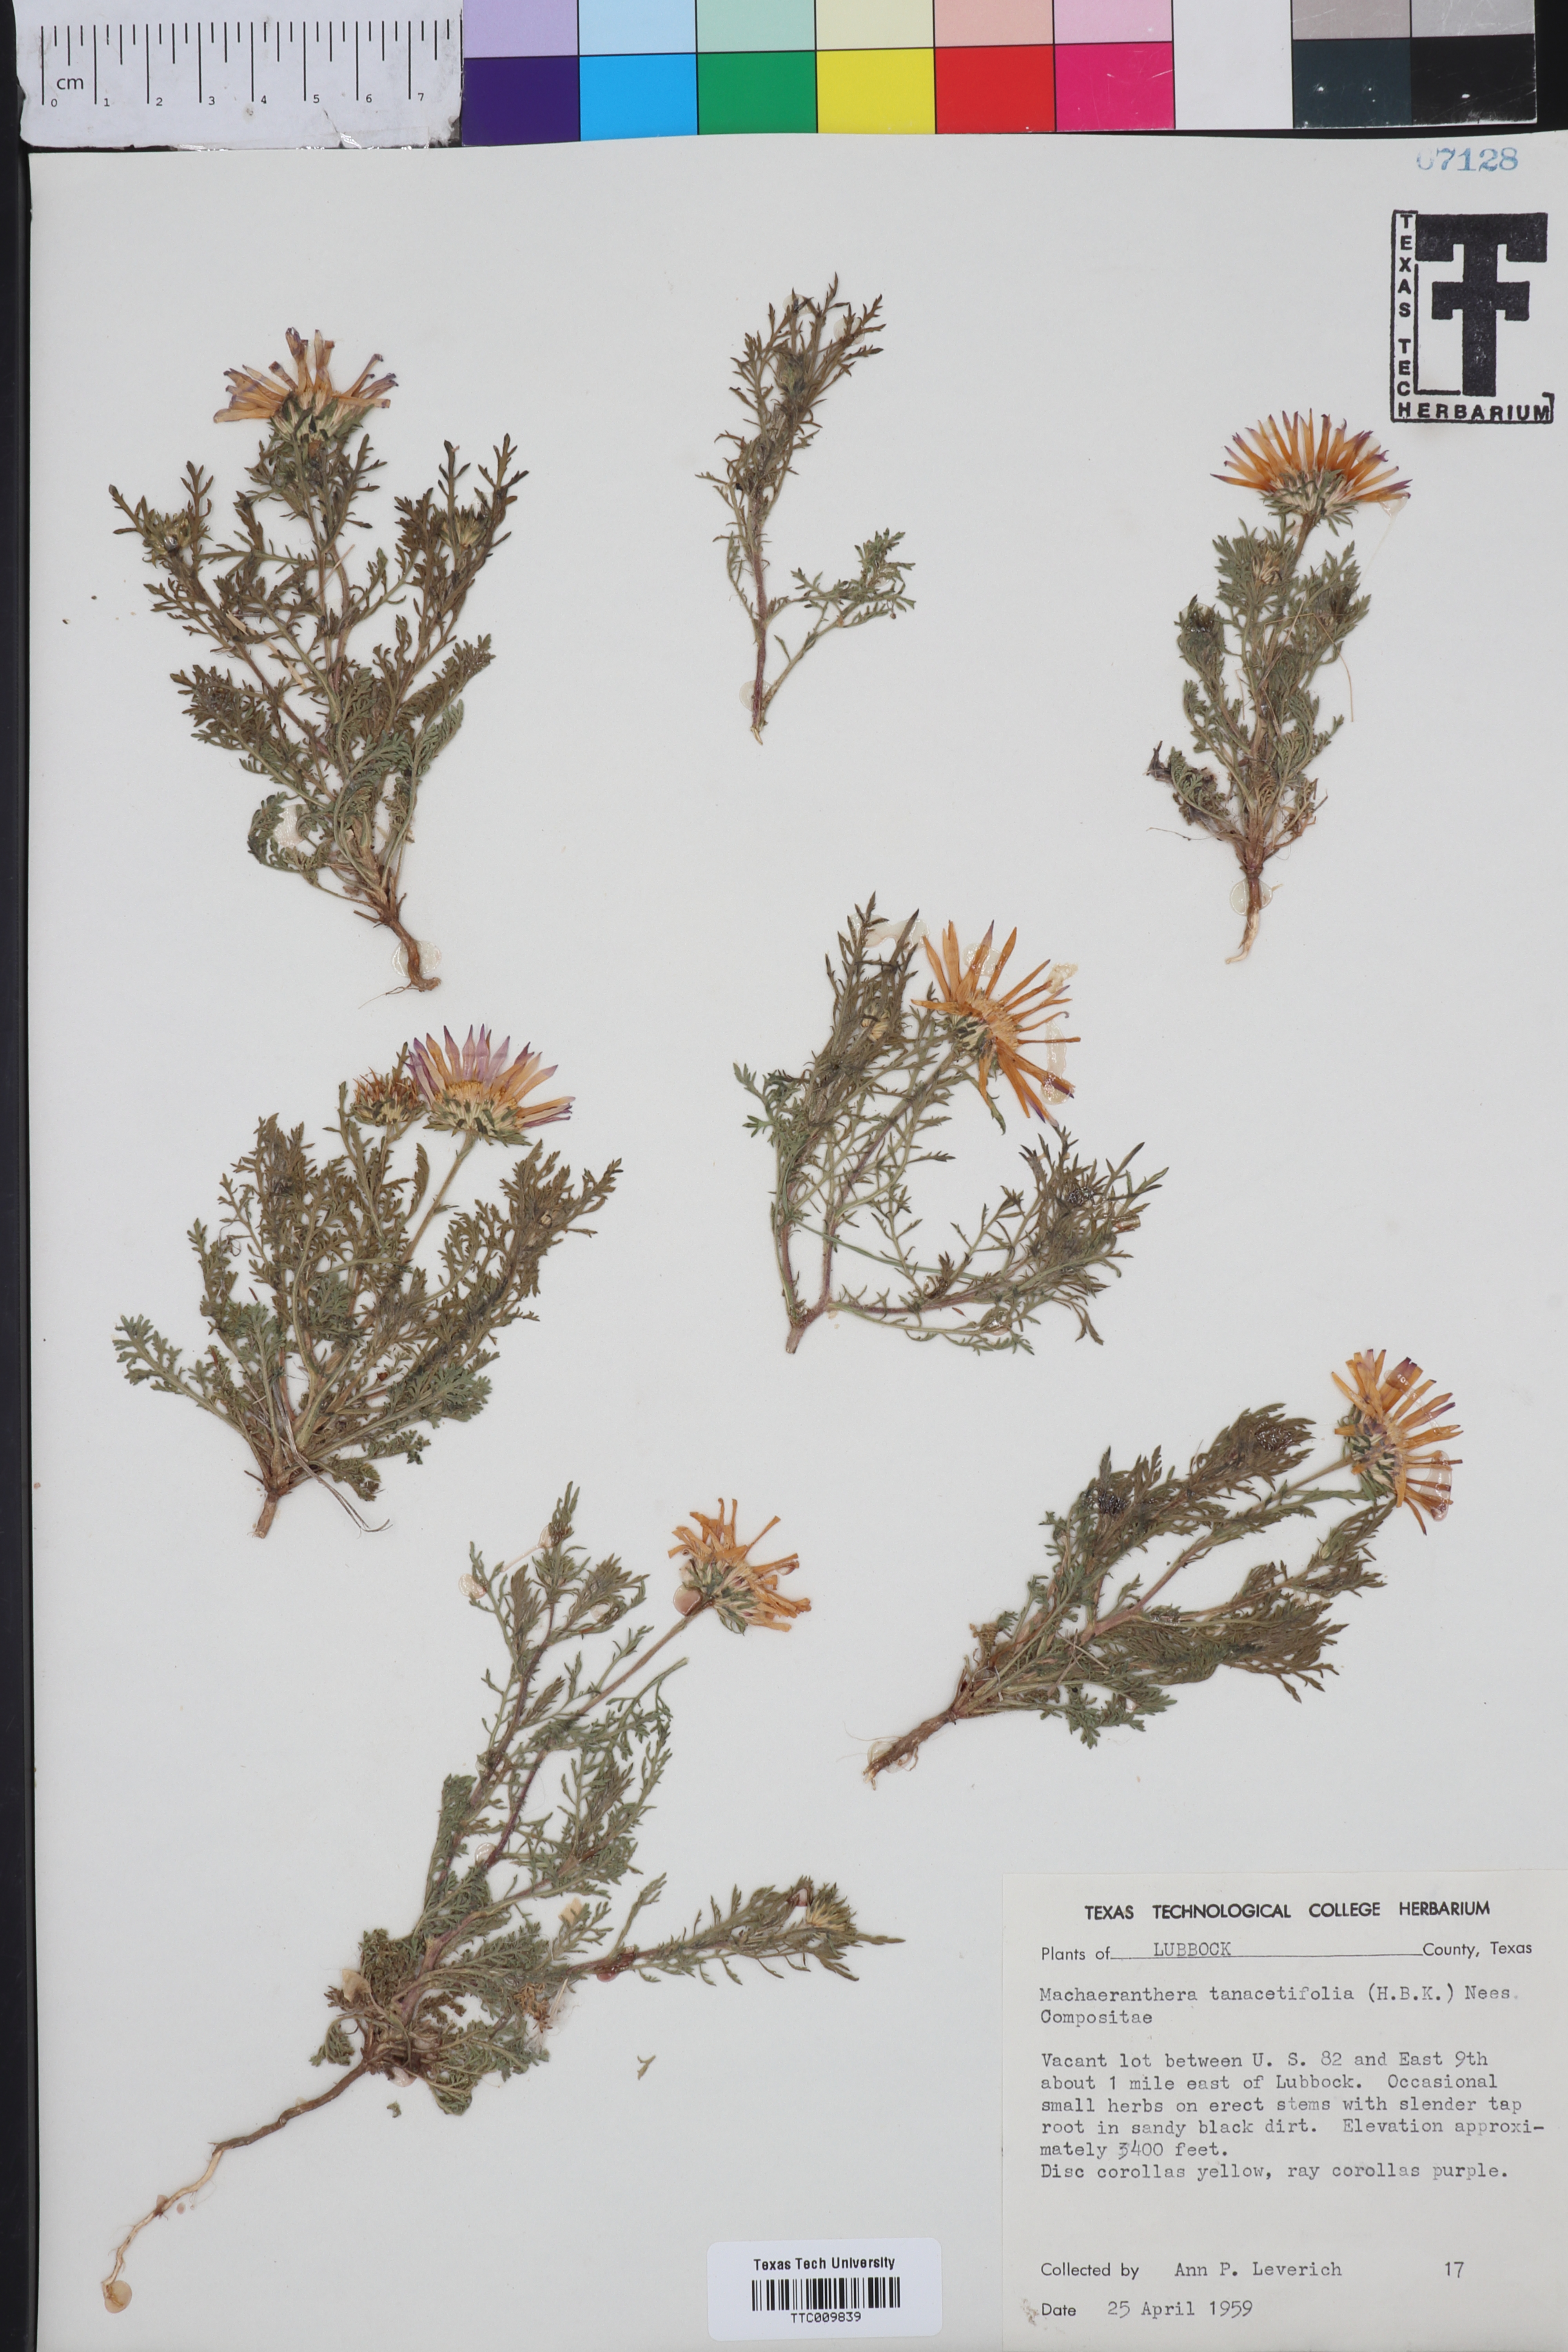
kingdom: Plantae
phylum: Tracheophyta
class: Magnoliopsida
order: Asterales
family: Asteraceae
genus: Machaeranthera
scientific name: Machaeranthera tanacetifolia
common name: Tansy-aster
